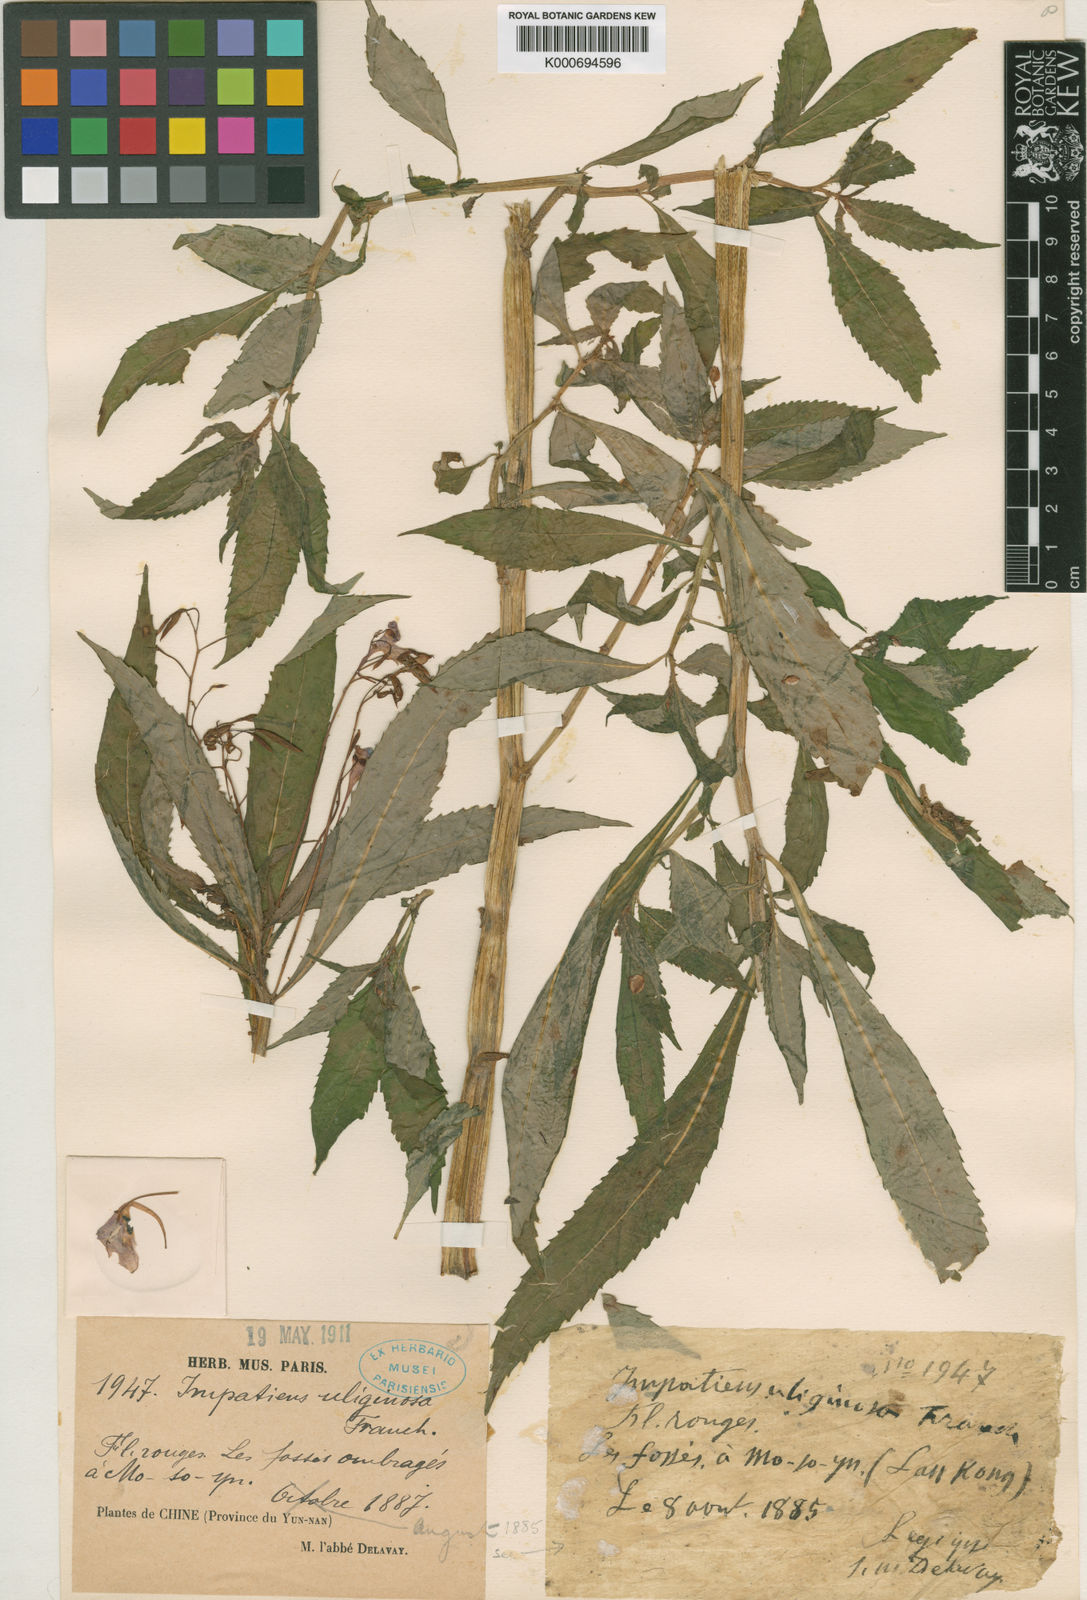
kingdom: Plantae
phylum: Tracheophyta
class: Magnoliopsida
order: Ericales
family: Balsaminaceae
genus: Impatiens
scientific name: Impatiens uliginosa
